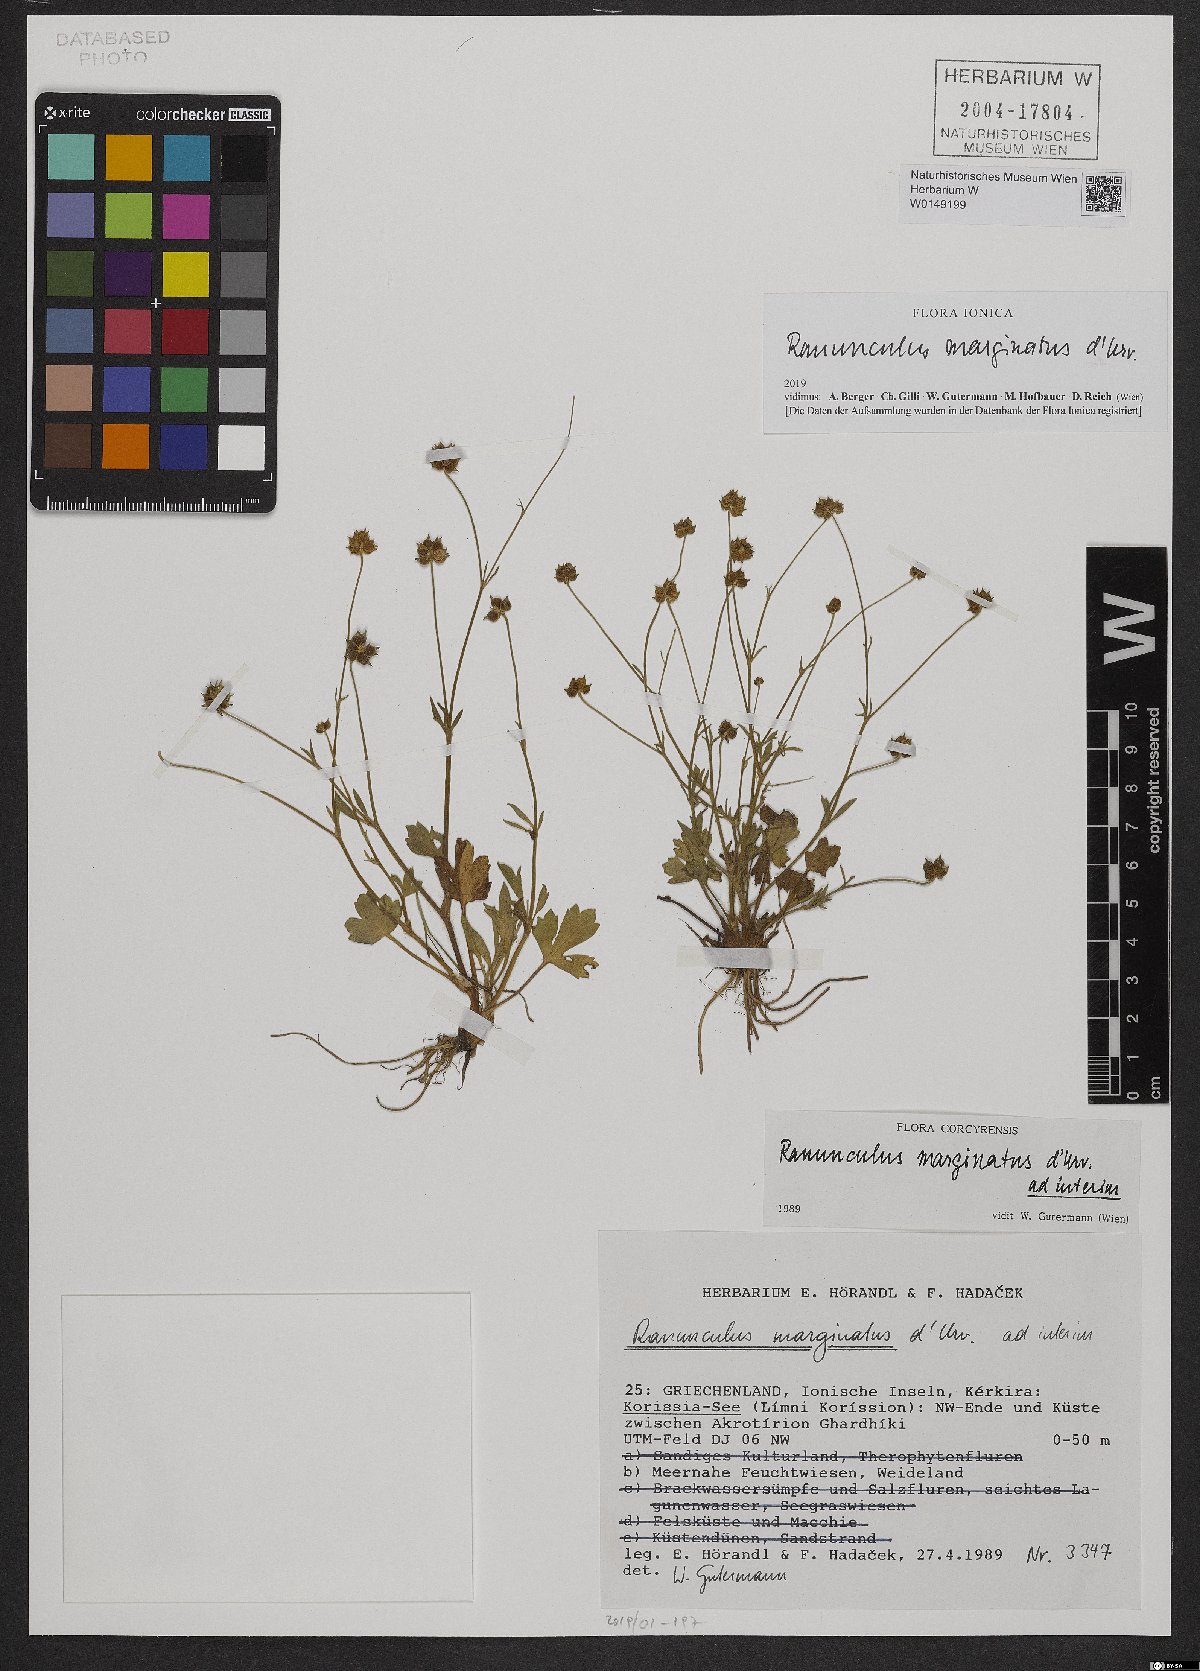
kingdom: Plantae
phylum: Tracheophyta
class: Magnoliopsida
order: Ranunculales
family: Ranunculaceae
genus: Ranunculus
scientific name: Ranunculus marginatus
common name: St. martin's buttercup
